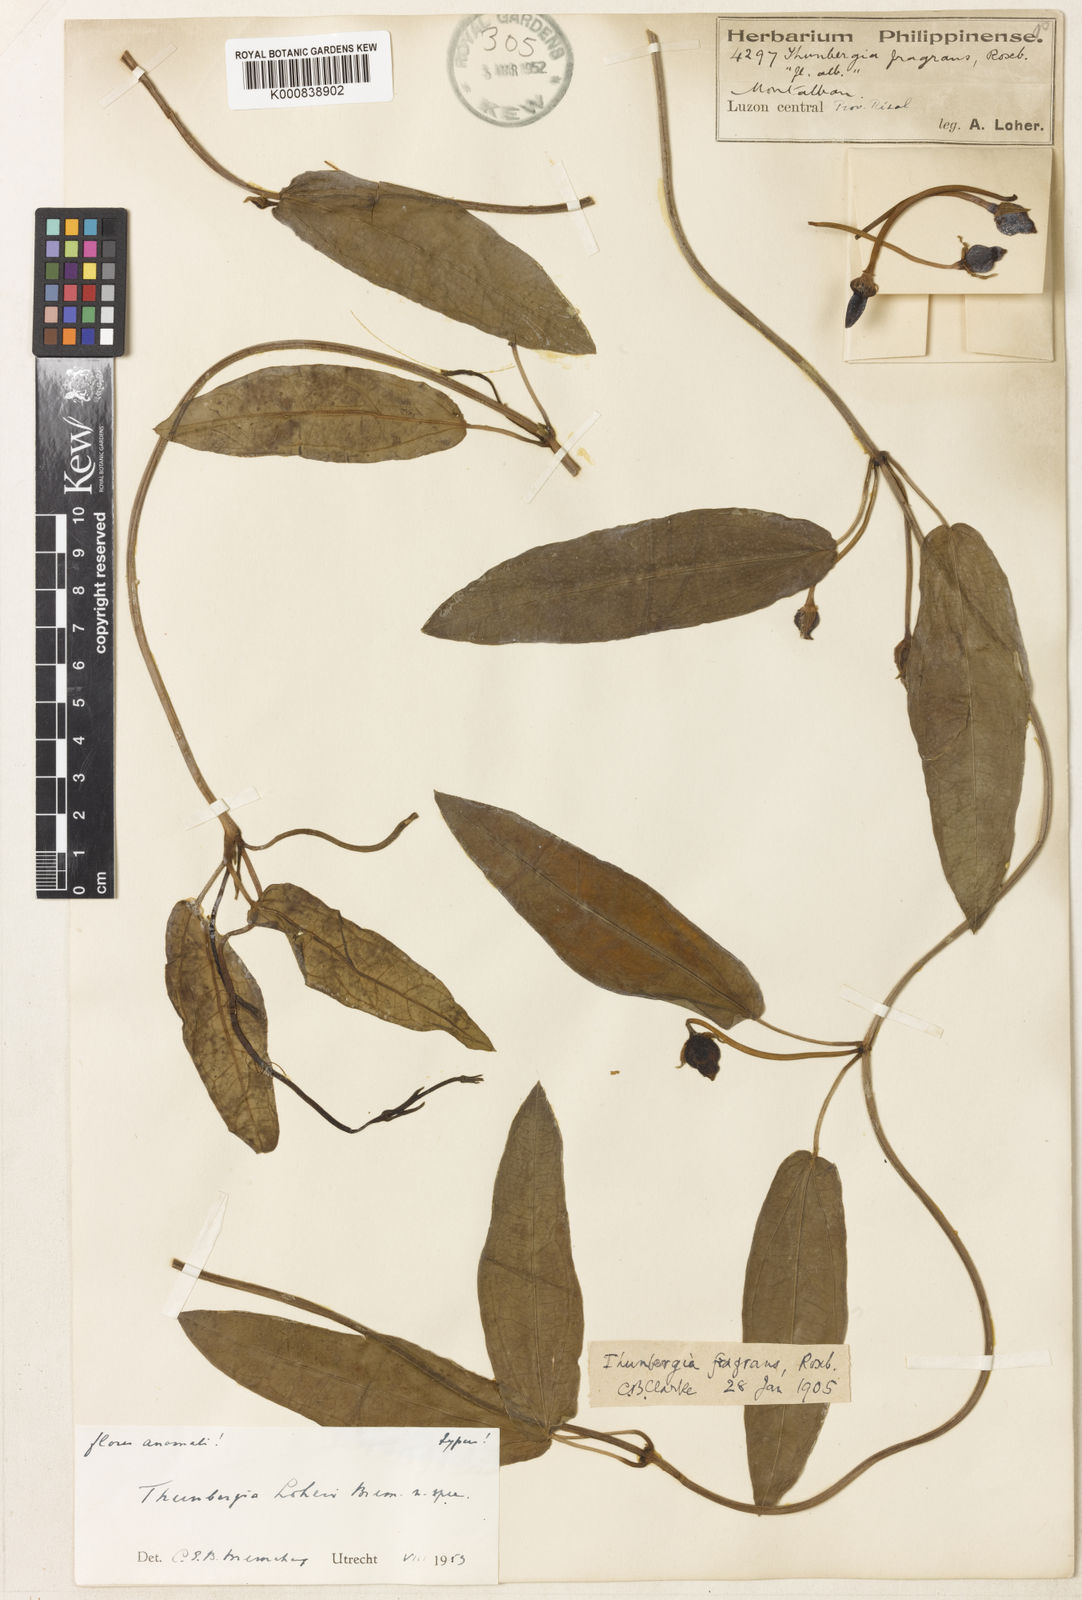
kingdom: Plantae
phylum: Tracheophyta
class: Magnoliopsida
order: Lamiales
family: Acanthaceae
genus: Thunbergia
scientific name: Thunbergia fragrans
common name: Whitelady
